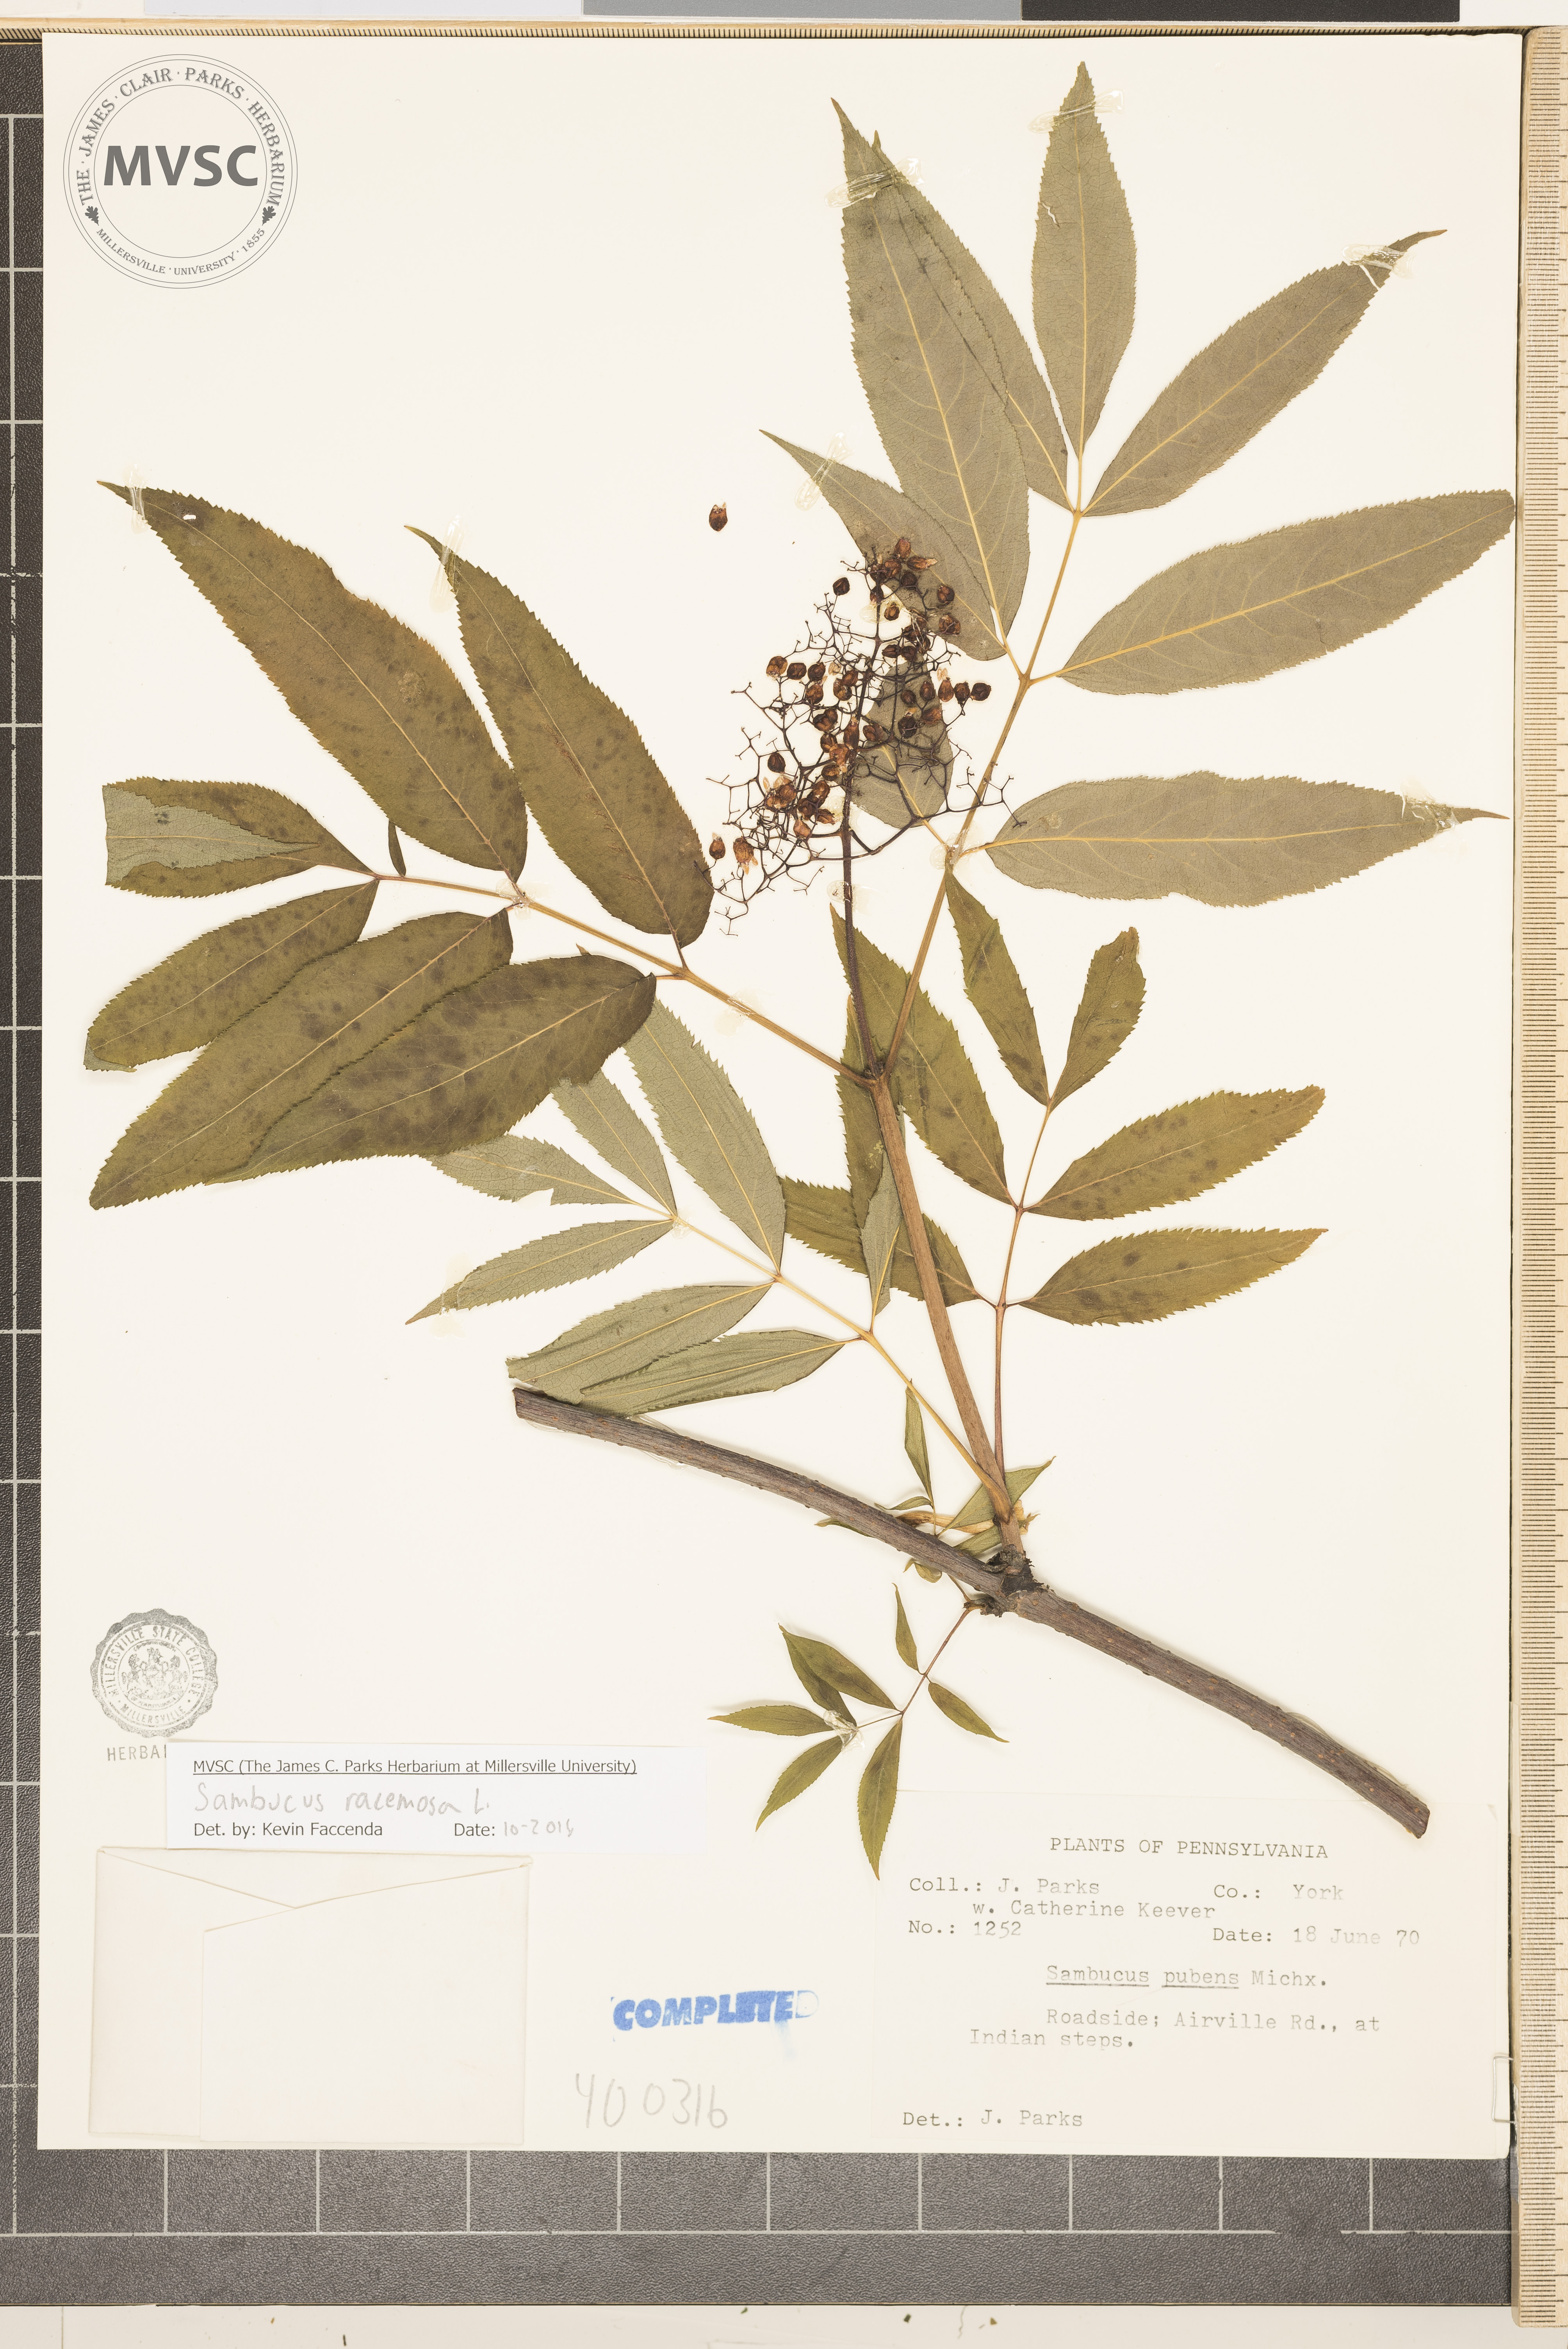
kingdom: Plantae
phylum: Tracheophyta
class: Magnoliopsida
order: Dipsacales
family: Viburnaceae
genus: Sambucus
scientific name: Sambucus racemosa
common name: elderberry
